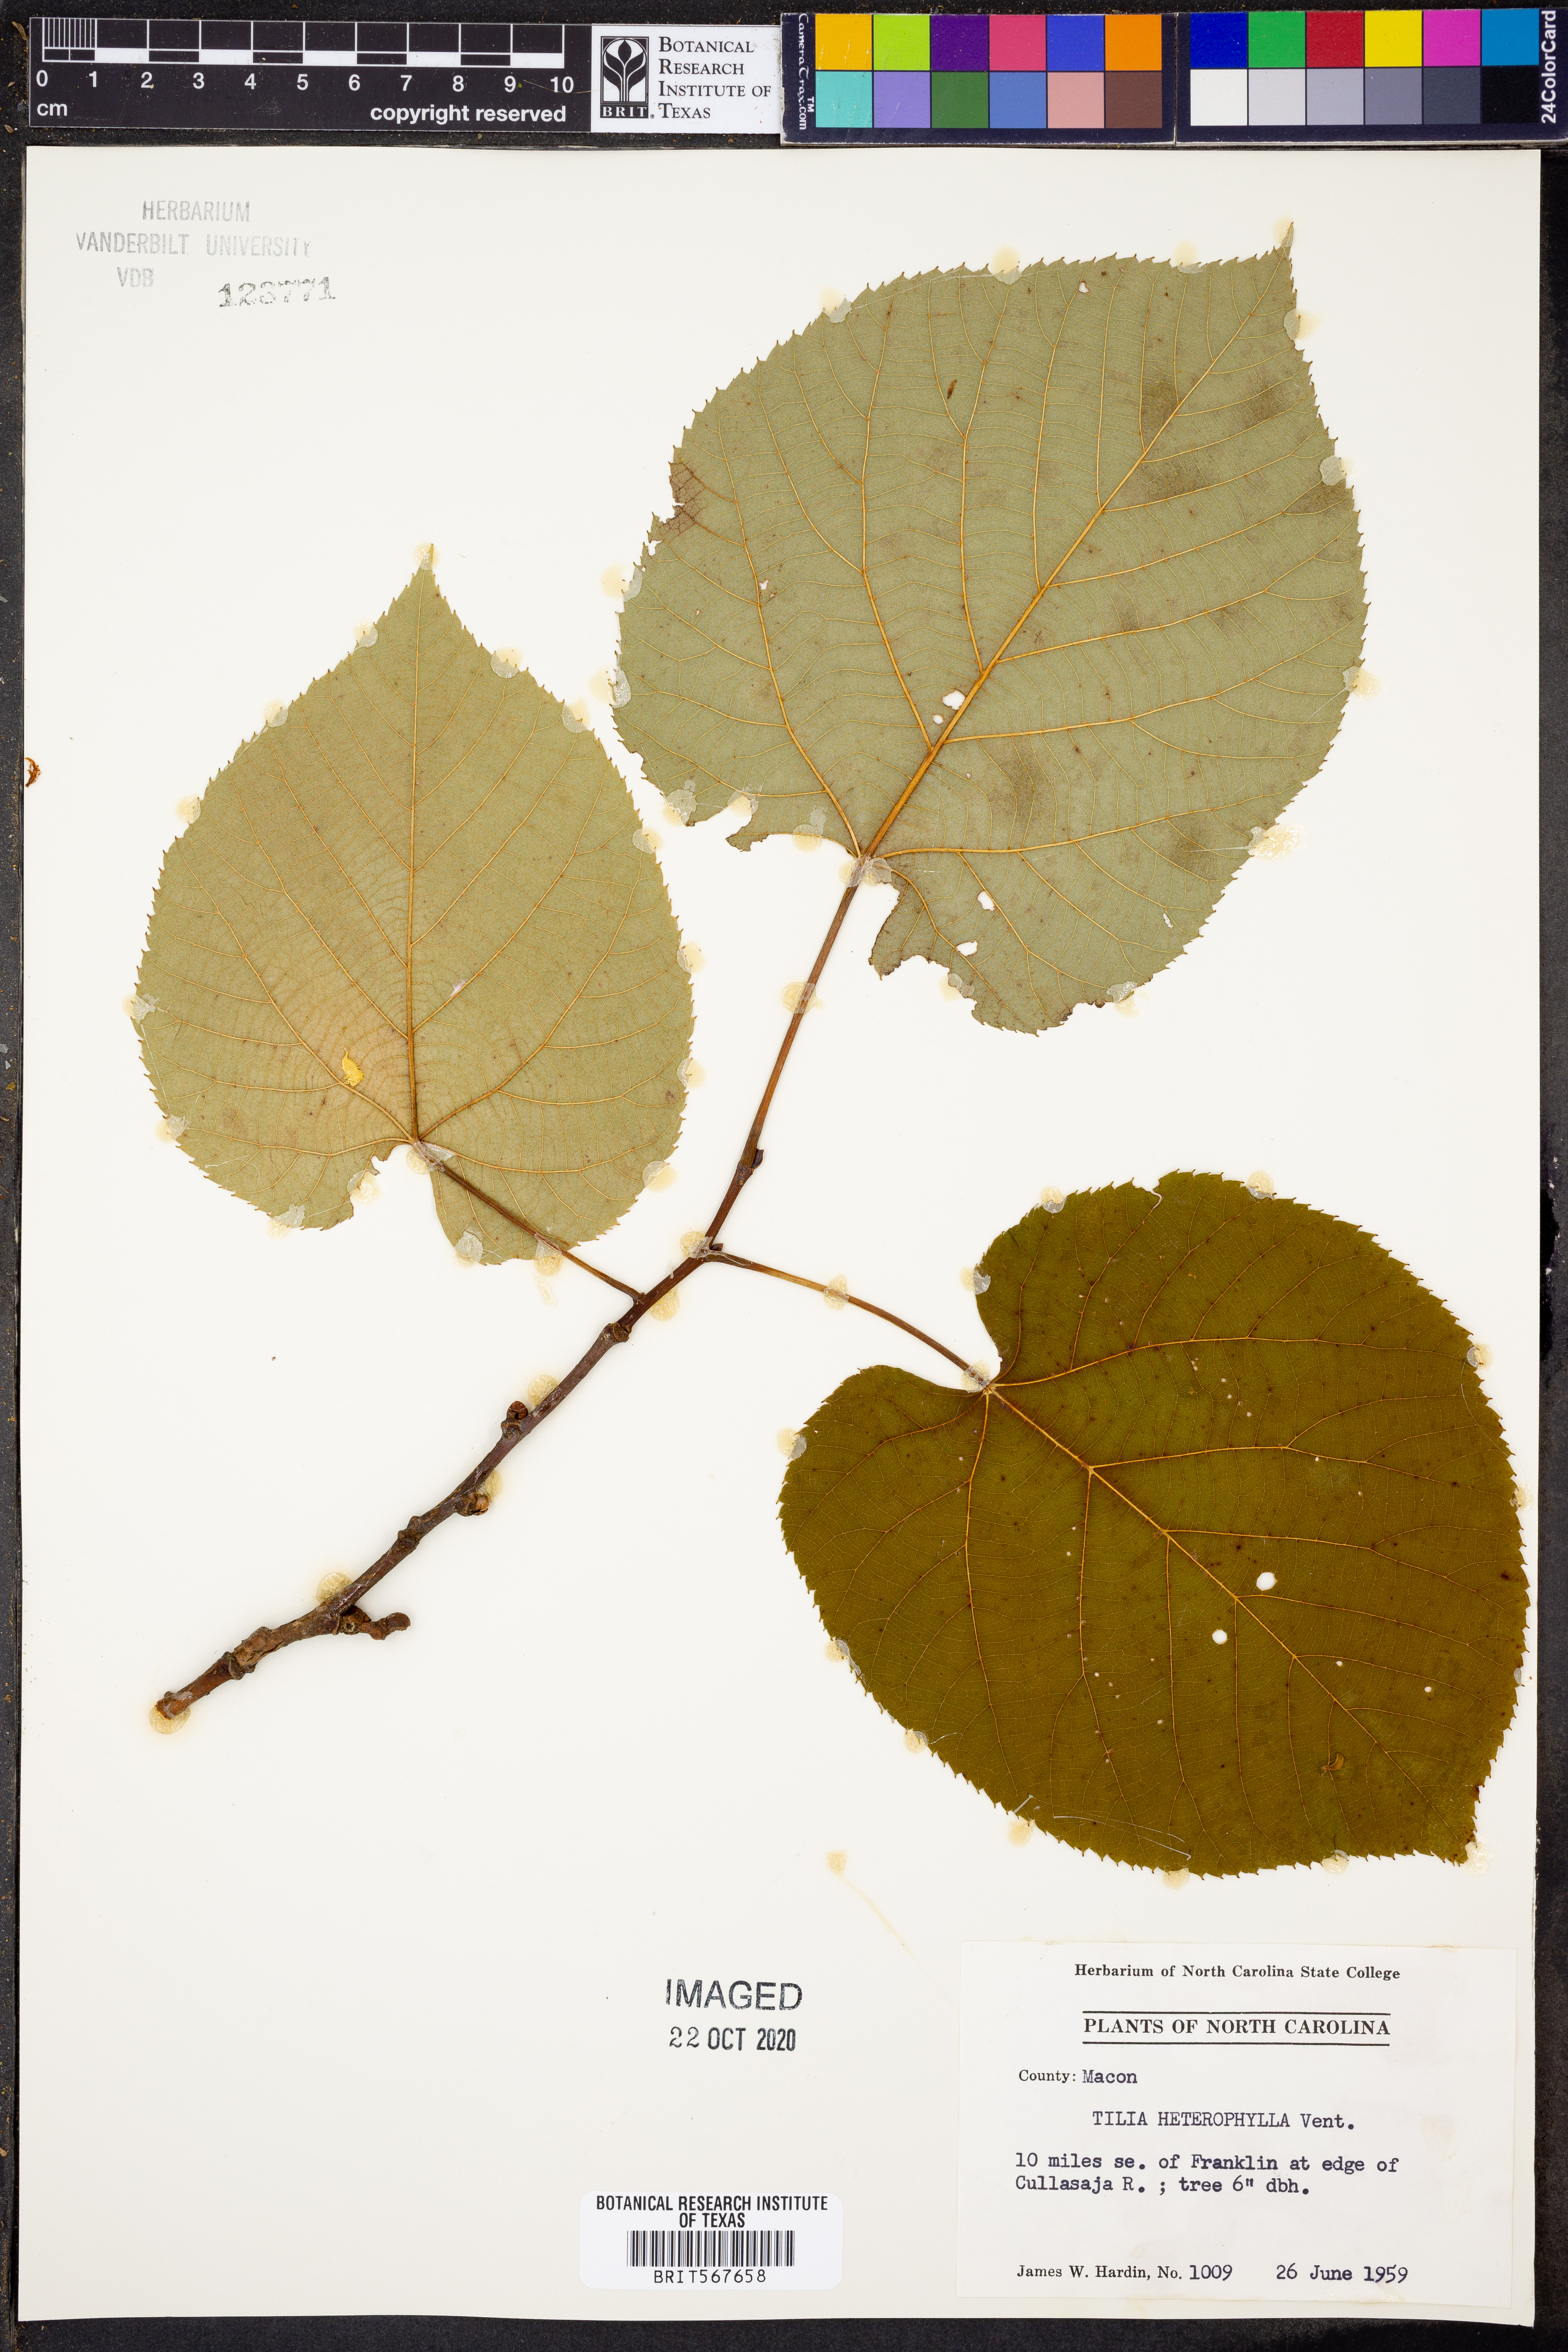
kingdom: Plantae
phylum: Tracheophyta
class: Magnoliopsida
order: Malvales
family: Malvaceae
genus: Tilia
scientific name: Tilia americana
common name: Basswood
